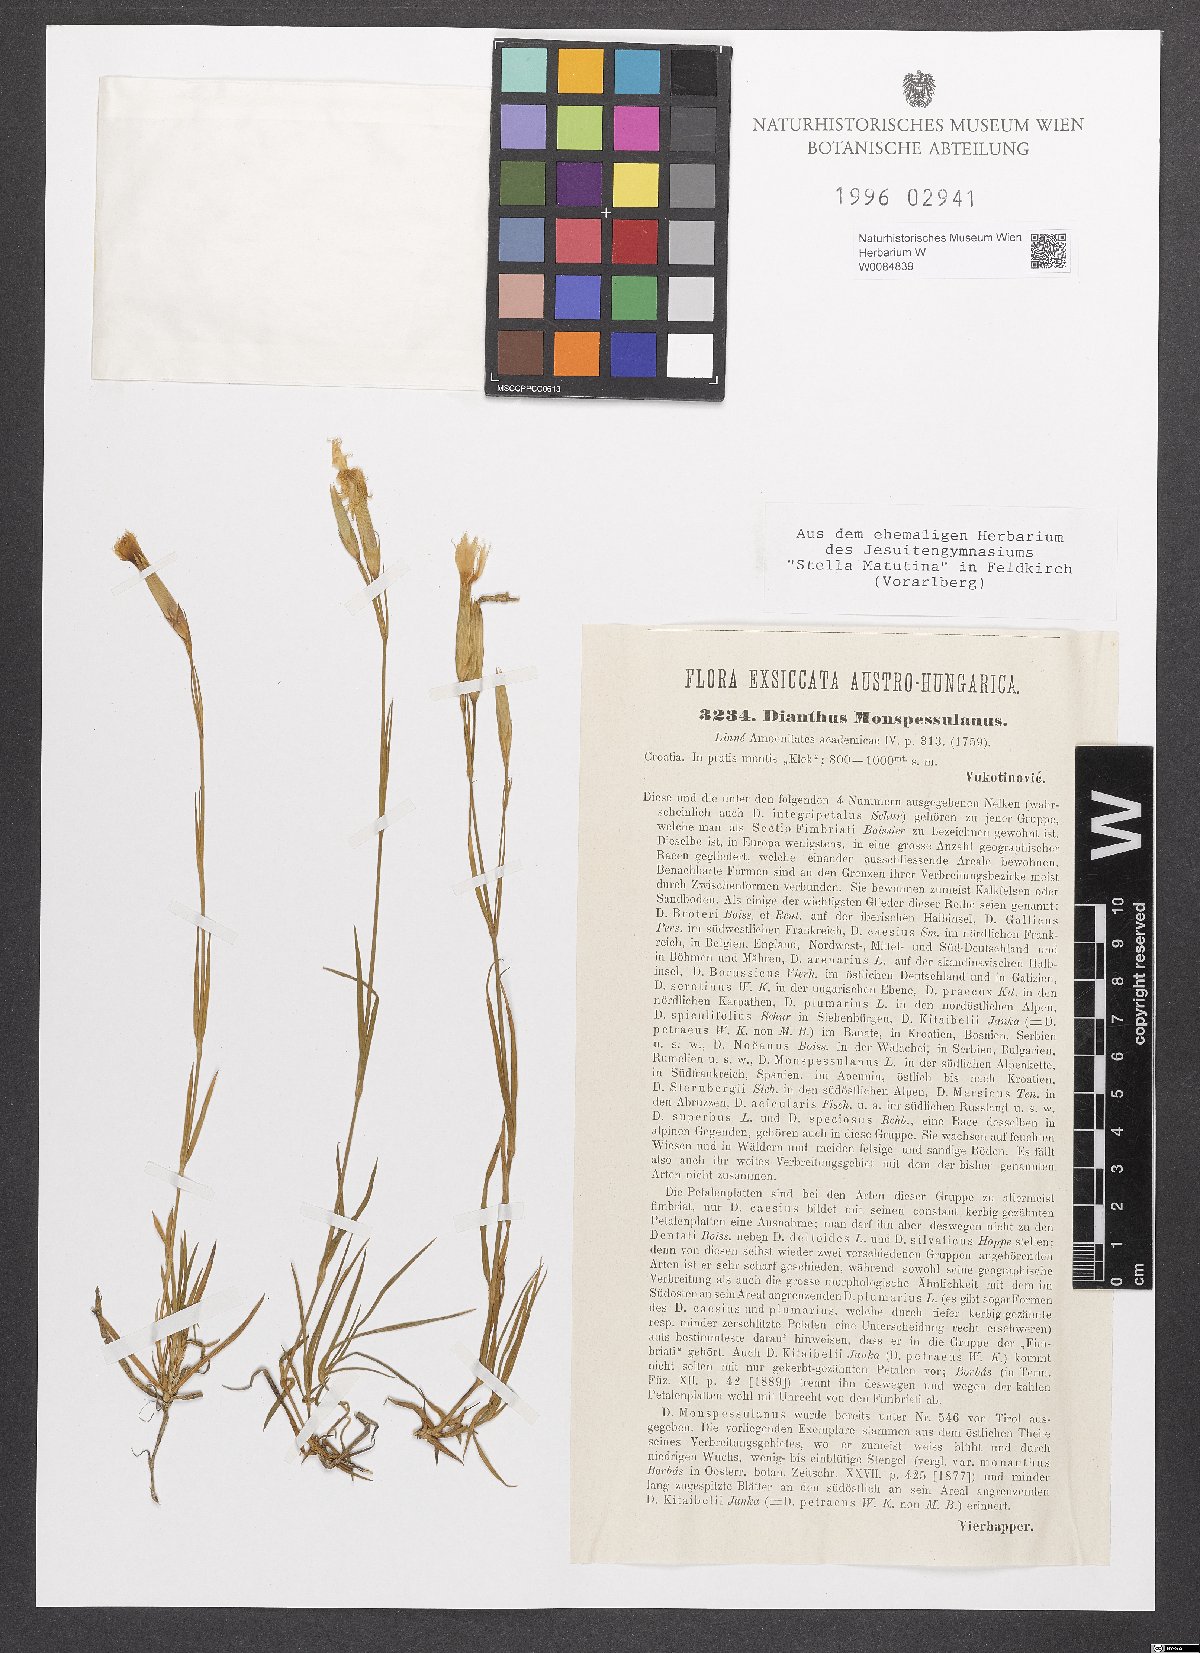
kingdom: Plantae
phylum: Tracheophyta
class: Magnoliopsida
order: Caryophyllales
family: Caryophyllaceae
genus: Dianthus
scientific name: Dianthus hyssopifolius
